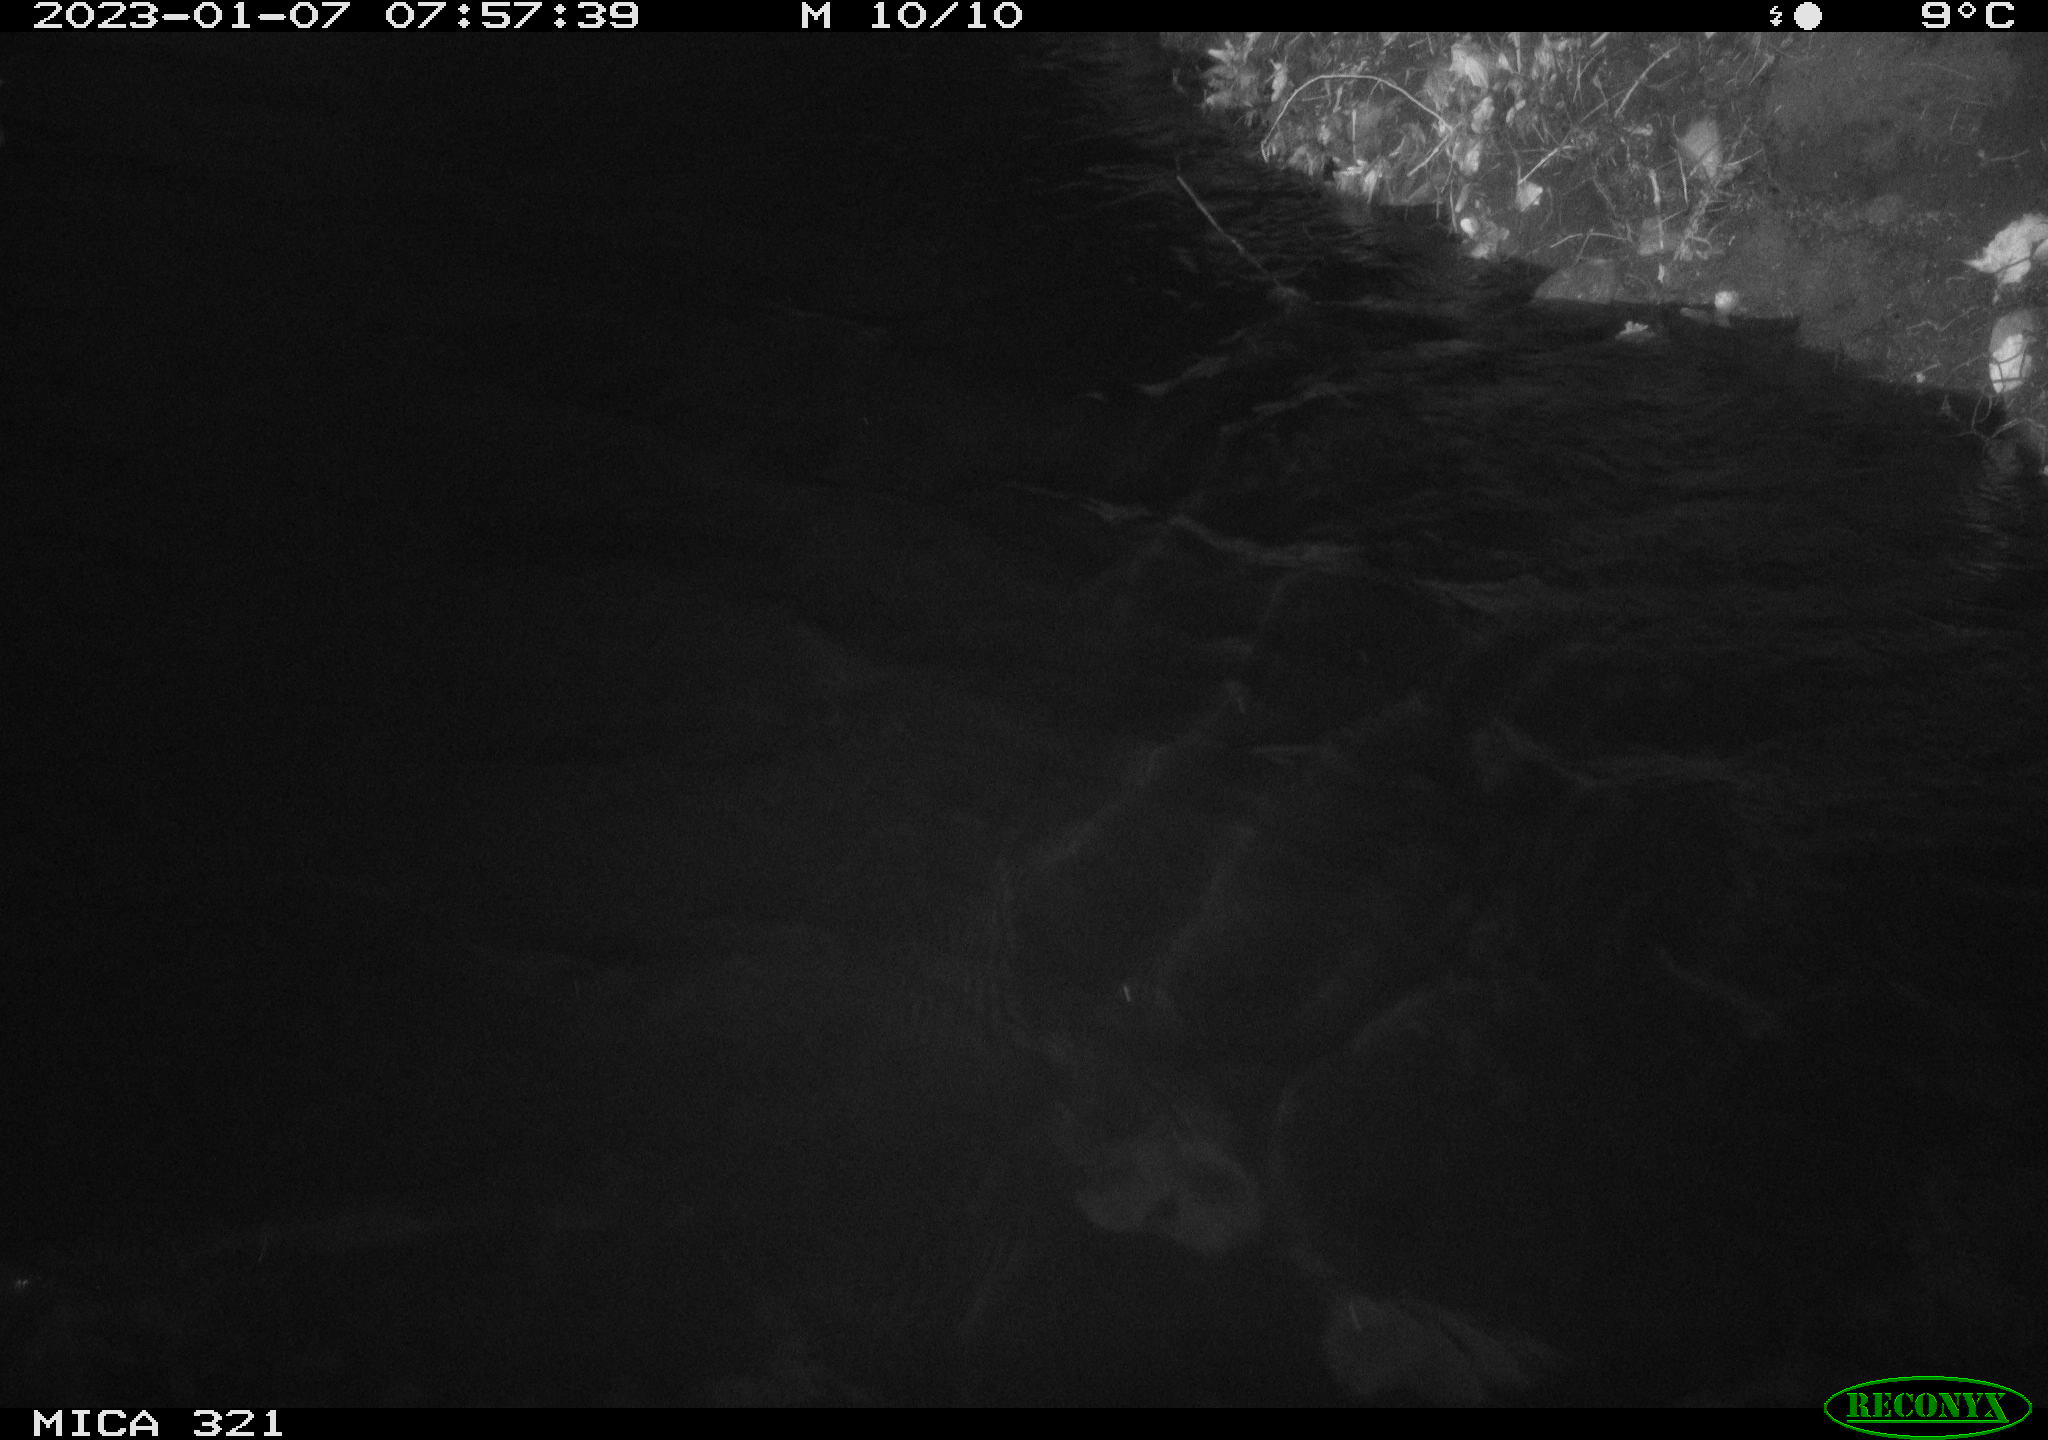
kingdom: Animalia
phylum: Chordata
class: Aves
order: Anseriformes
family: Anatidae
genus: Anas
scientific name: Anas
